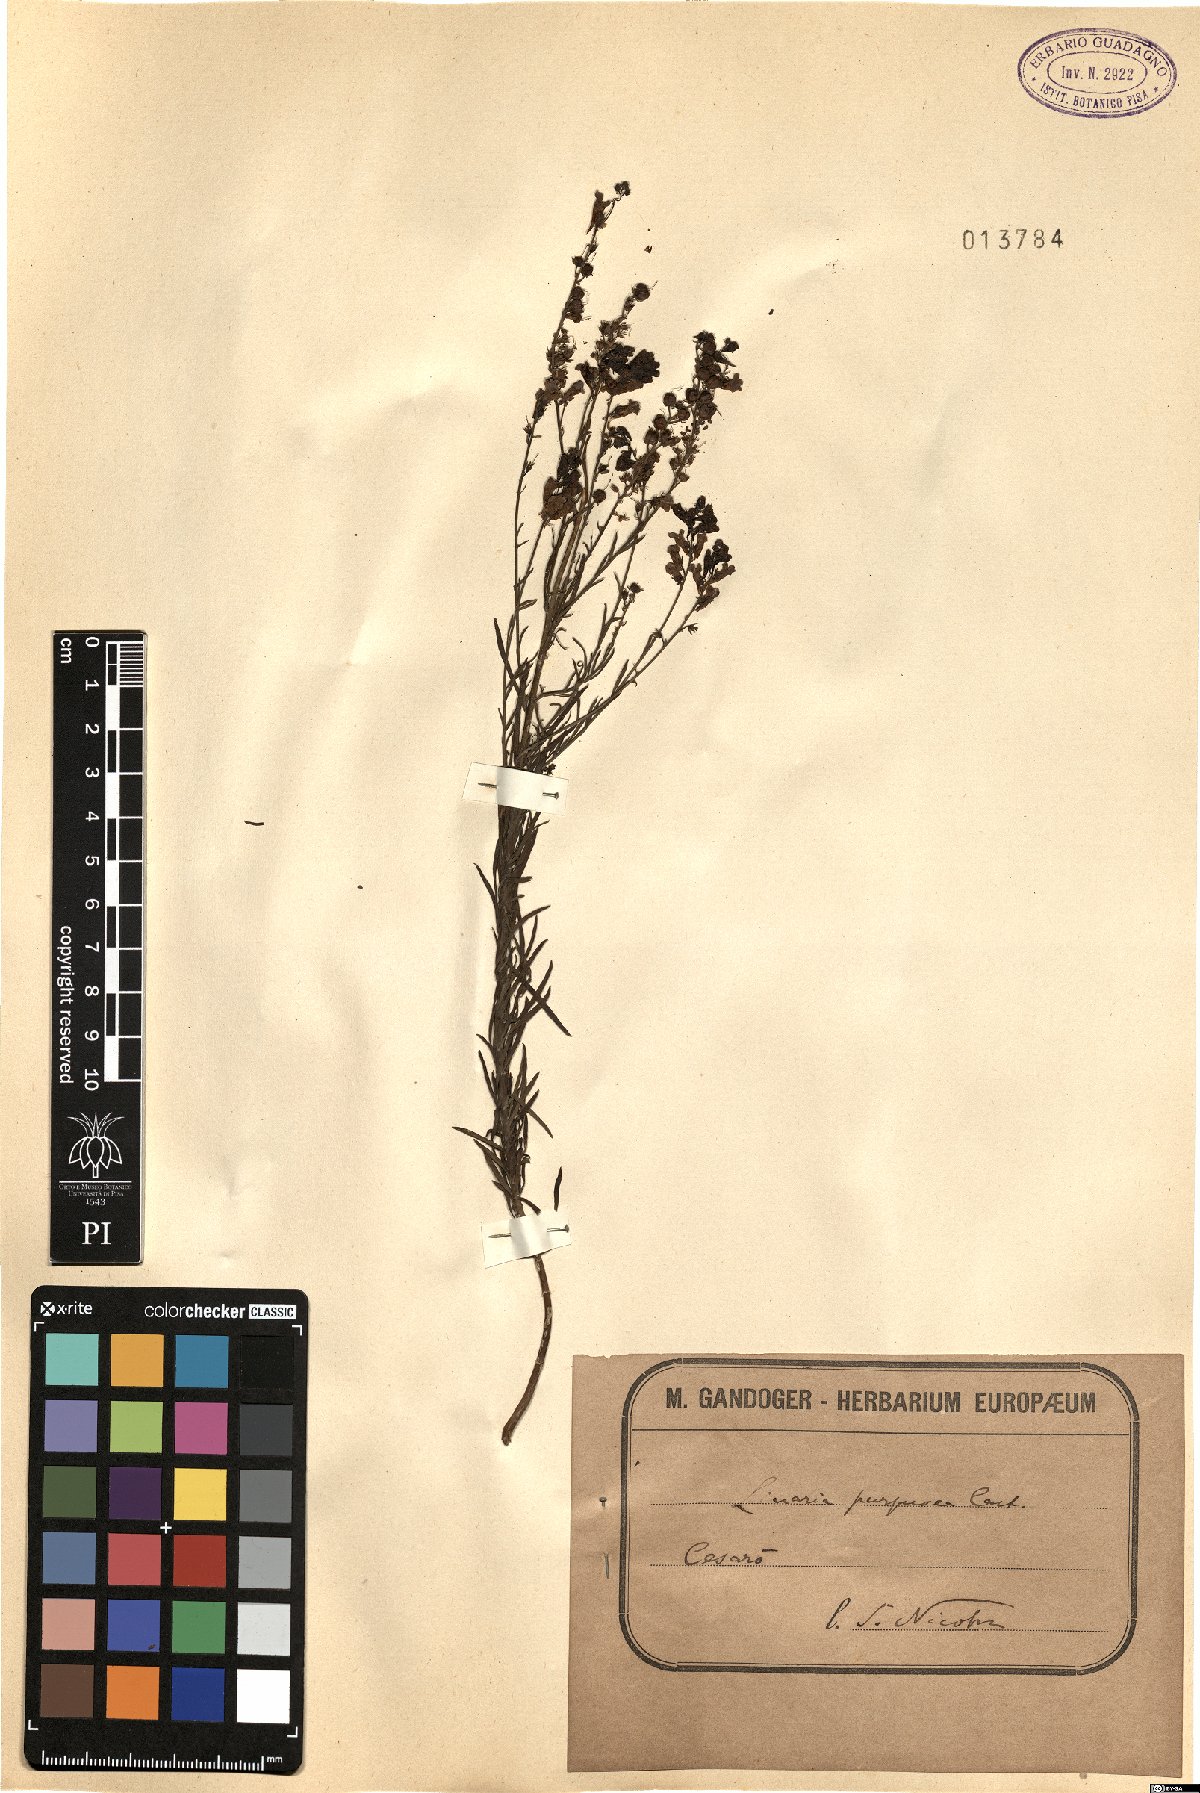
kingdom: Plantae
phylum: Tracheophyta
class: Magnoliopsida
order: Lamiales
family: Plantaginaceae
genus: Linaria
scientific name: Linaria purpurea
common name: Purple toadflax
